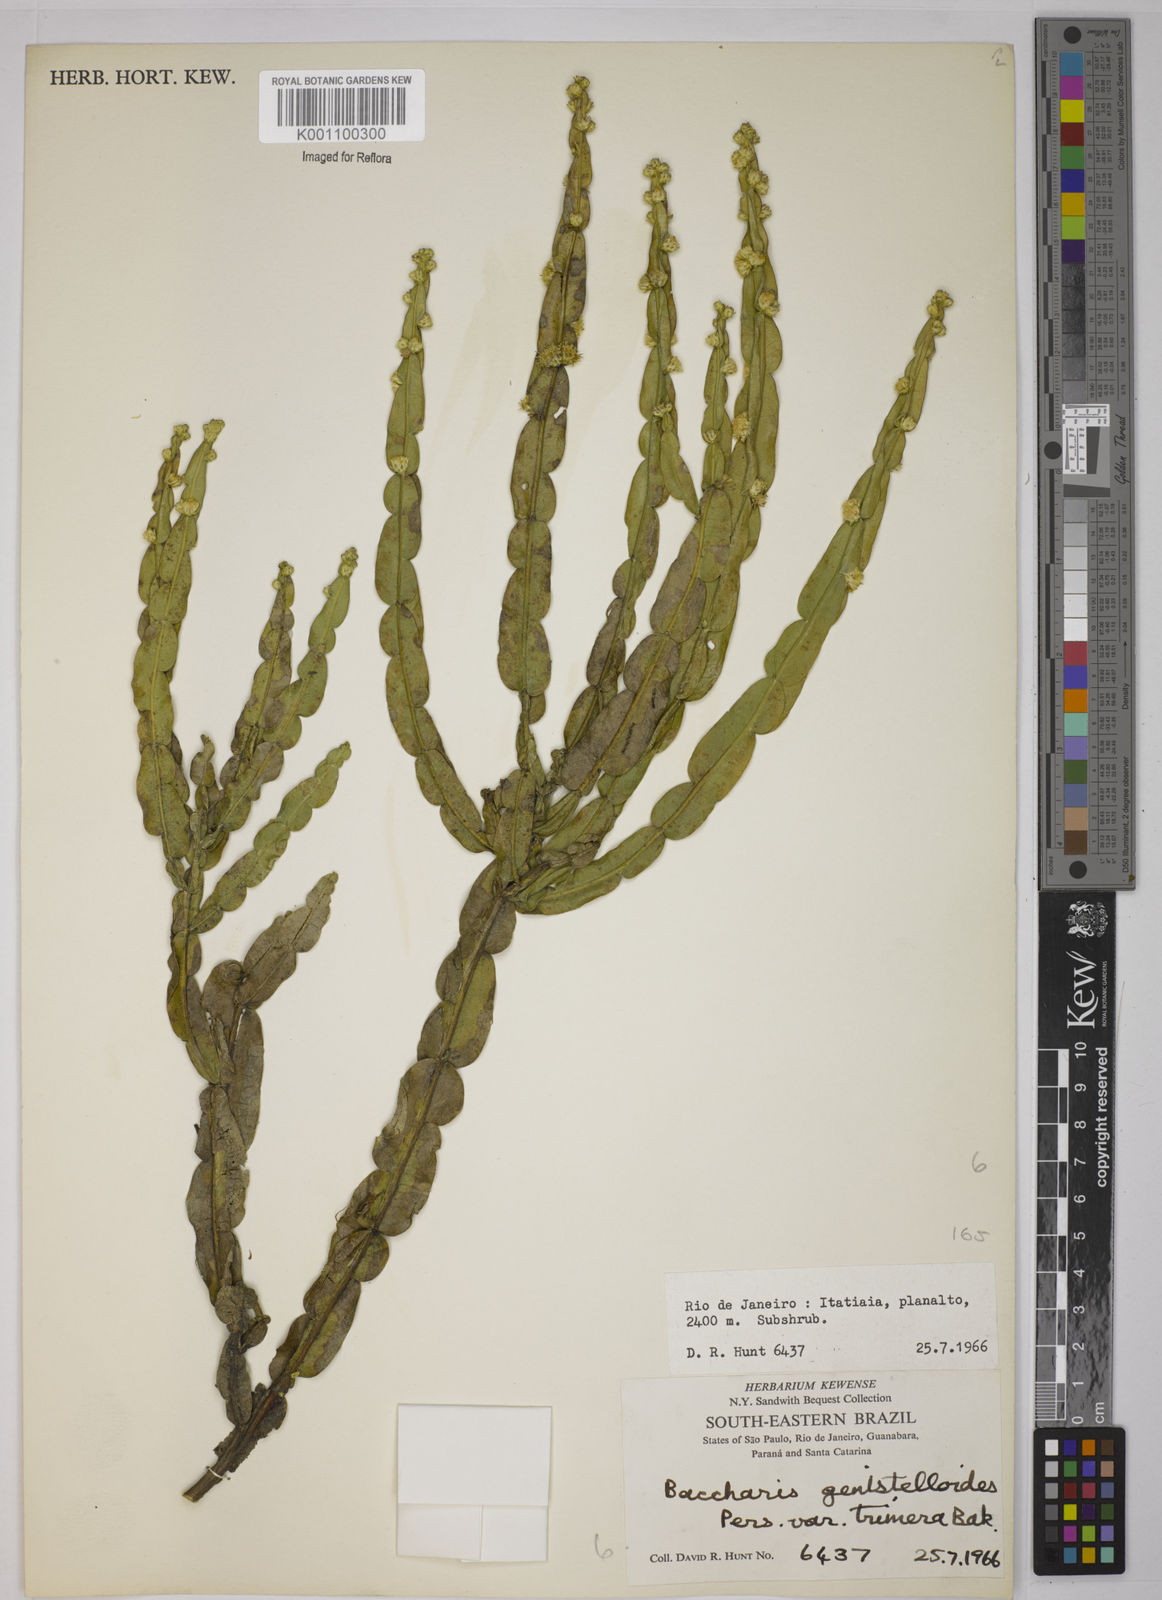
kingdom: Plantae
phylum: Tracheophyta
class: Magnoliopsida
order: Asterales
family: Asteraceae
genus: Baccharis
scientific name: Baccharis trimera
